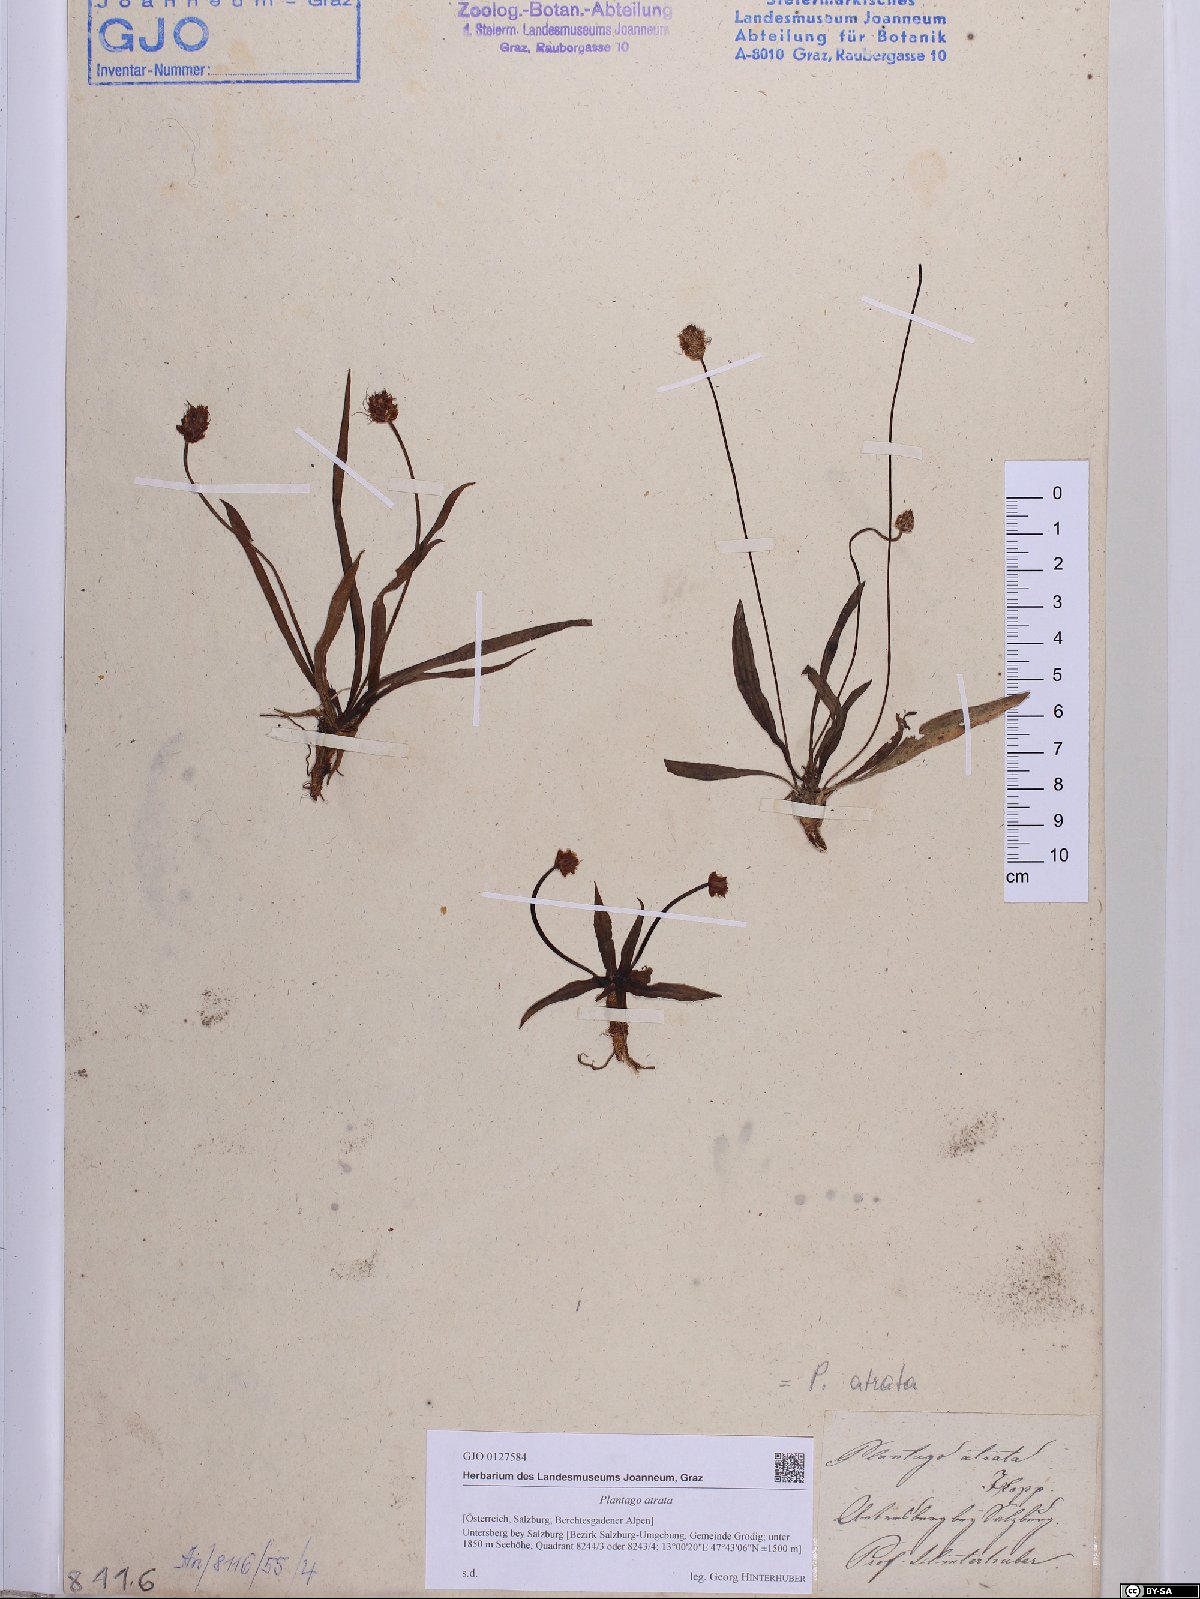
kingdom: Plantae
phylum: Tracheophyta
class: Magnoliopsida
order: Lamiales
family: Plantaginaceae
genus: Plantago
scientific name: Plantago atrata
